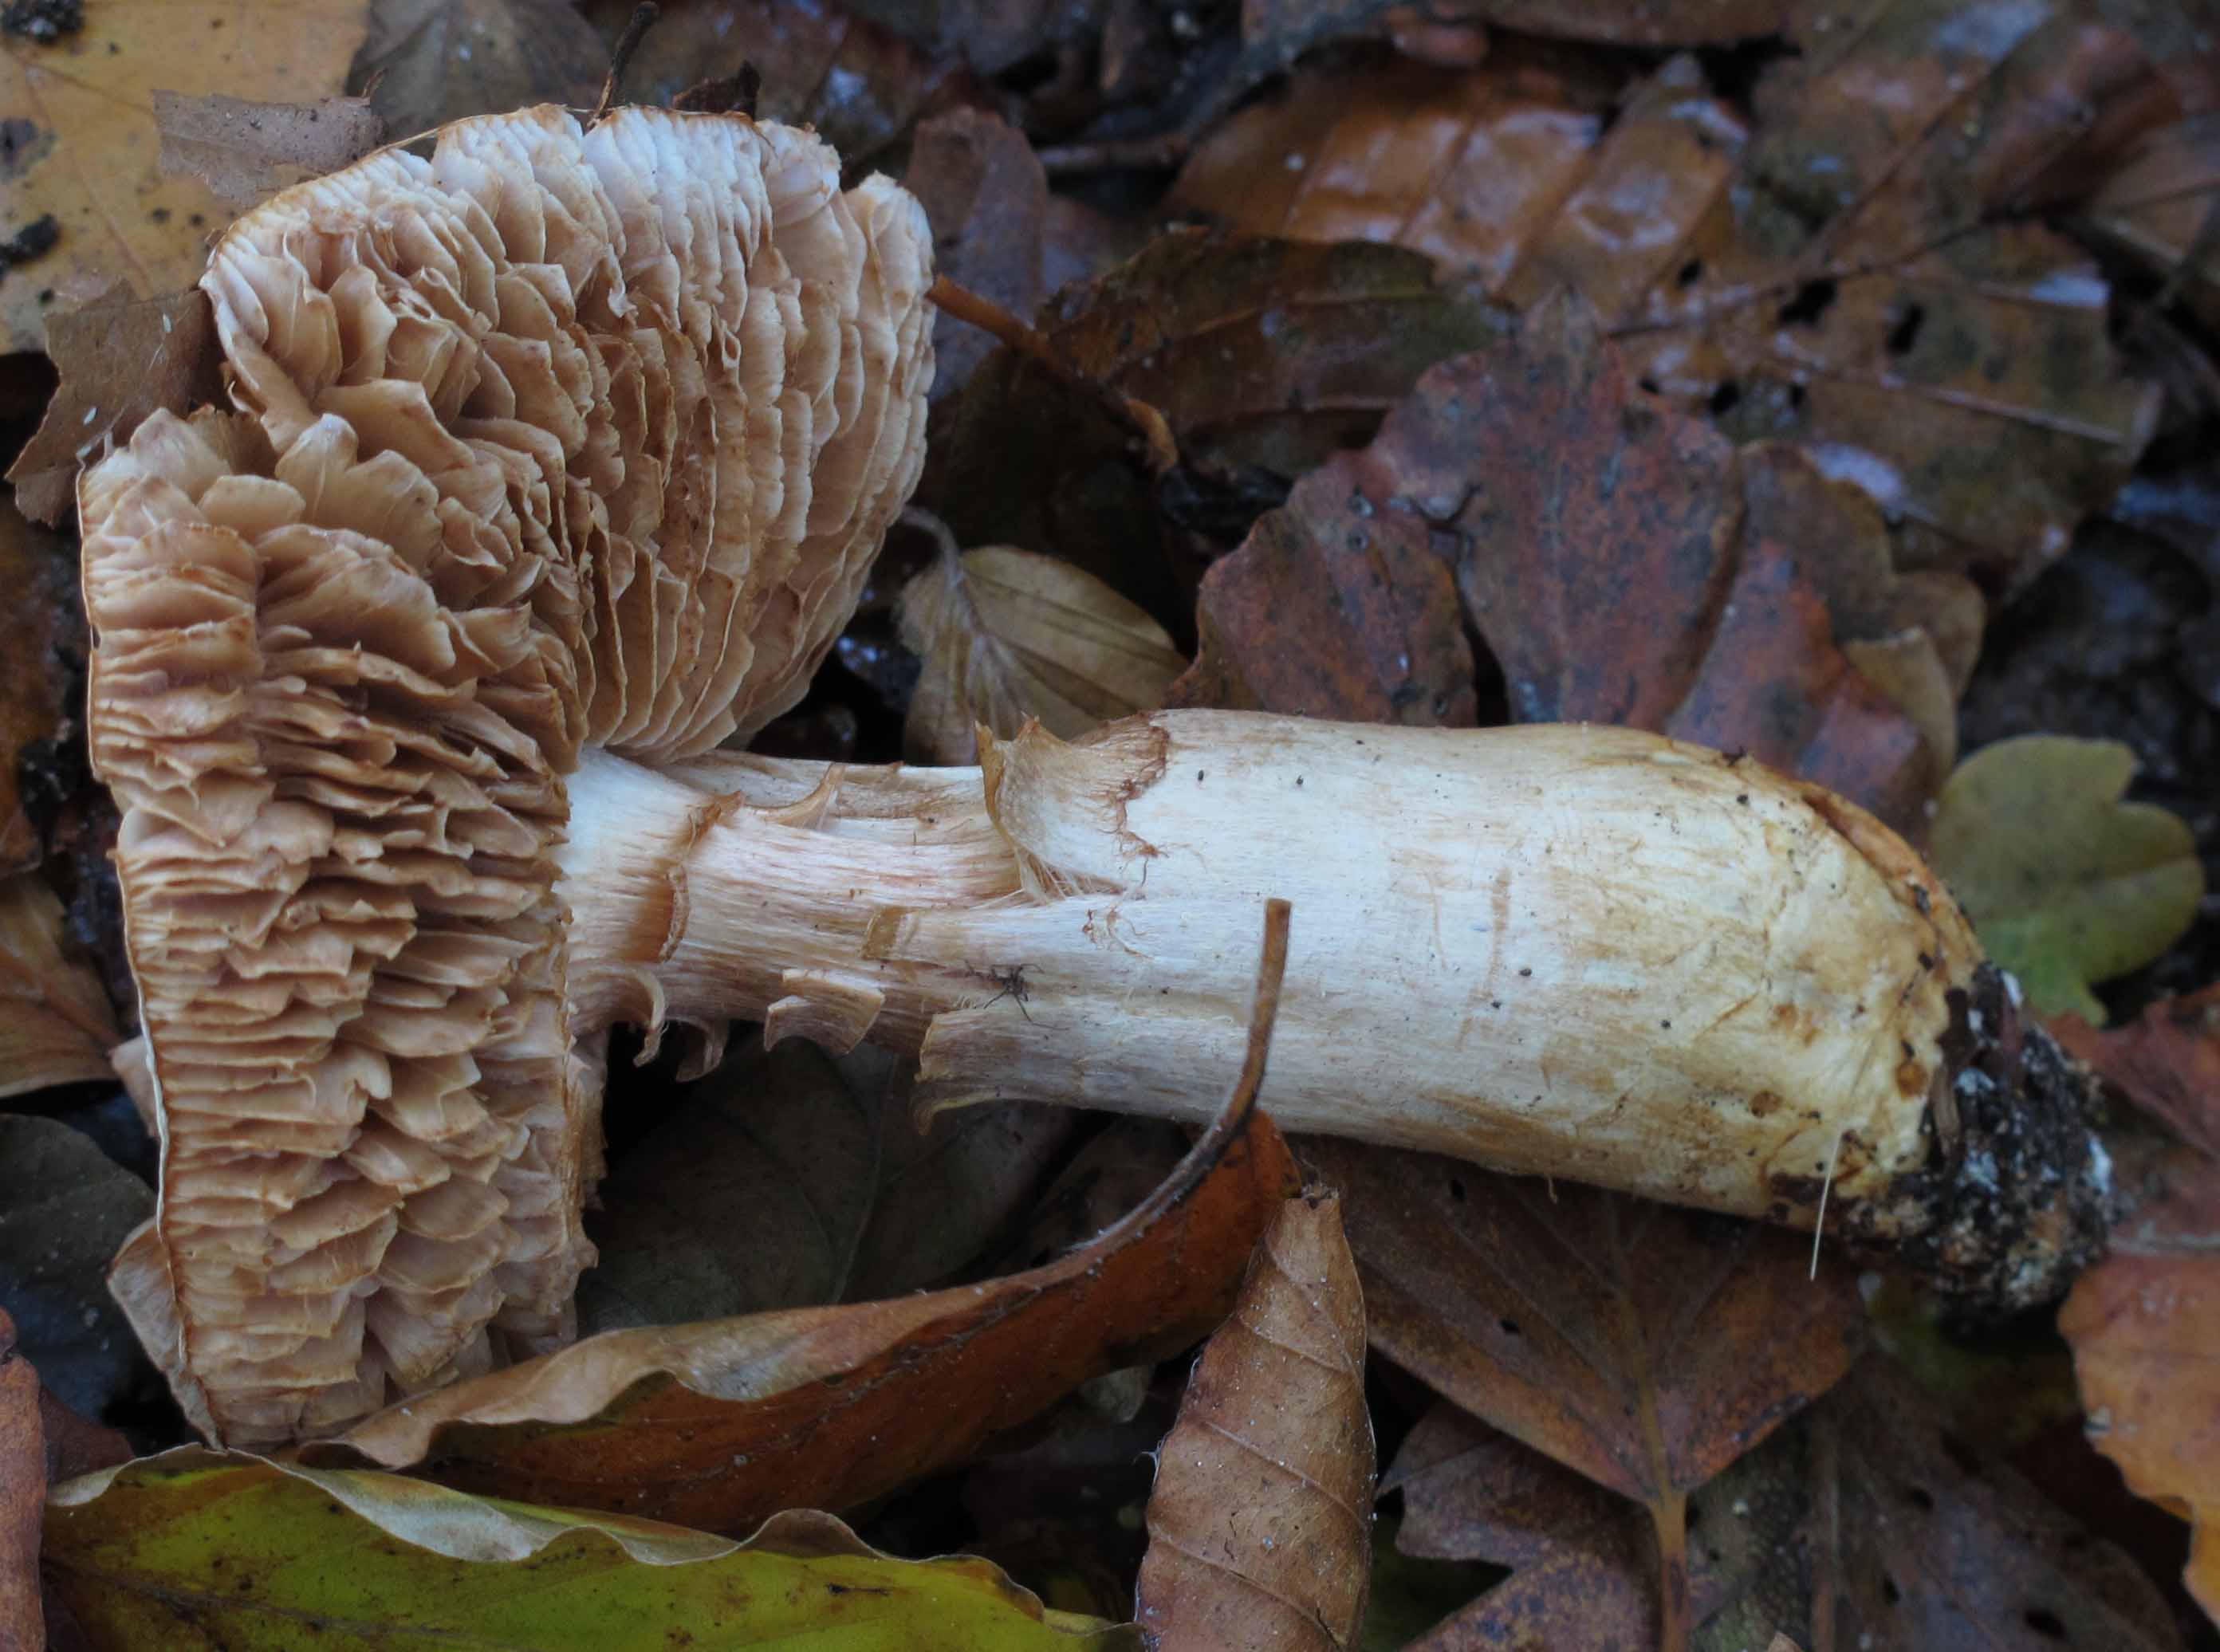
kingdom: Fungi
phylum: Basidiomycota
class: Agaricomycetes
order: Agaricales
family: Cortinariaceae
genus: Phlegmacium
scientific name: Phlegmacium vulpinum
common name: ringbæltet slørhat
